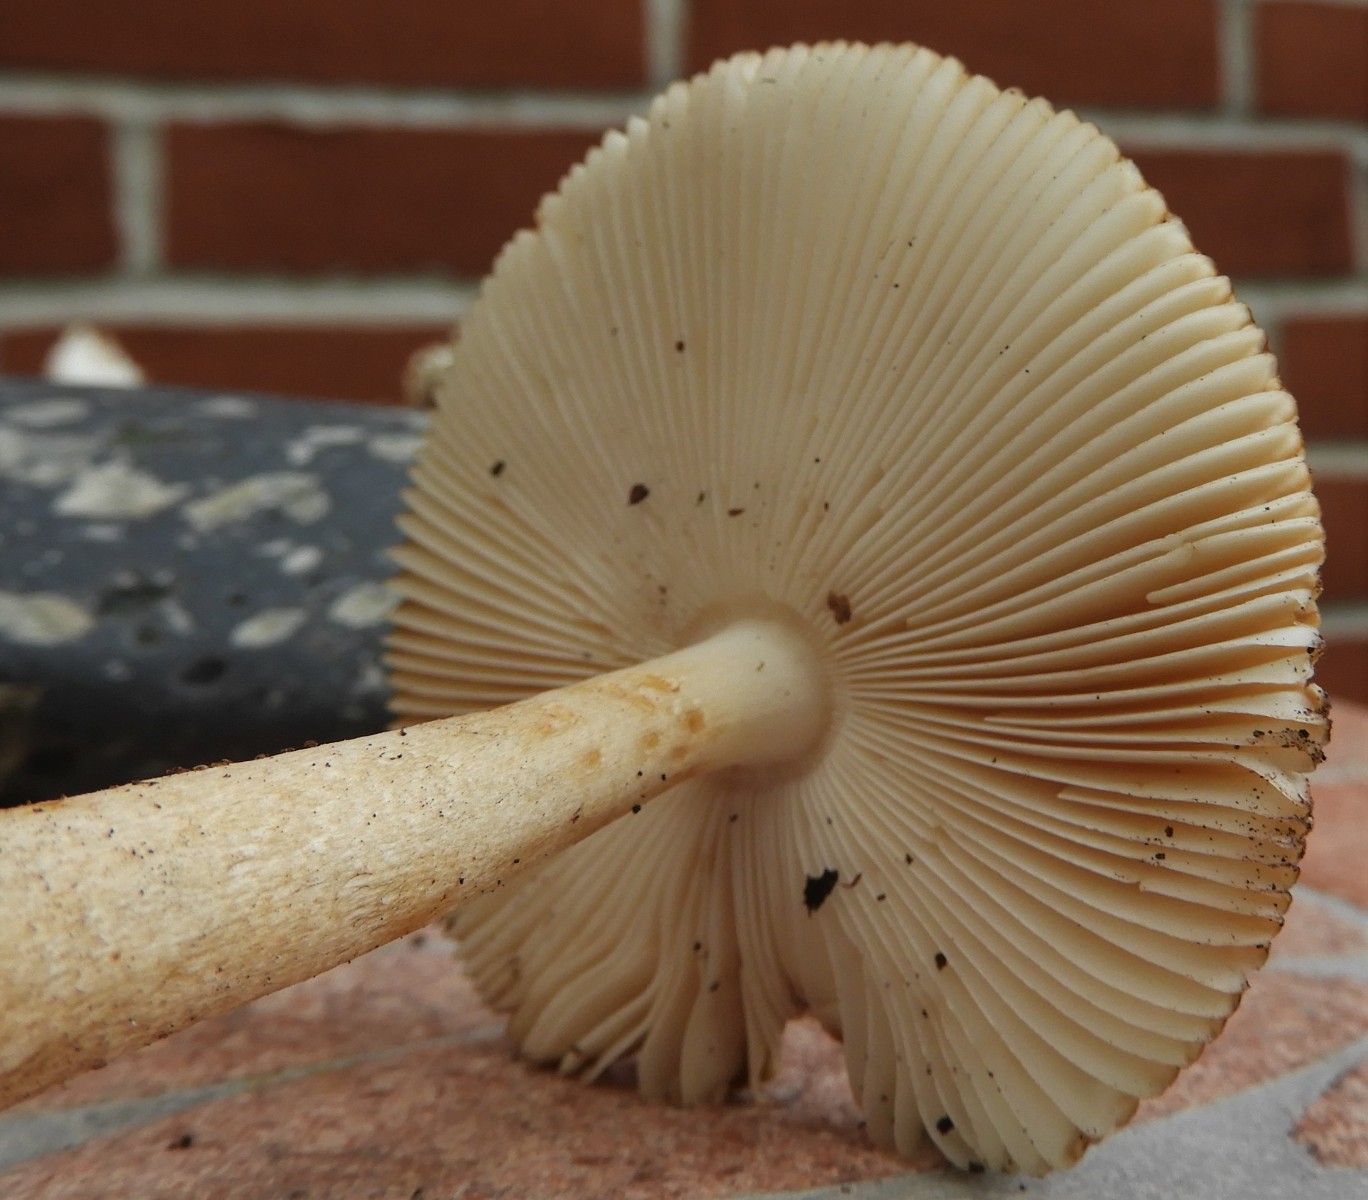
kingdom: Fungi
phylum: Basidiomycota
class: Agaricomycetes
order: Agaricales
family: Amanitaceae
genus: Amanita
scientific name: Amanita fulva
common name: brun kam-fluesvamp
